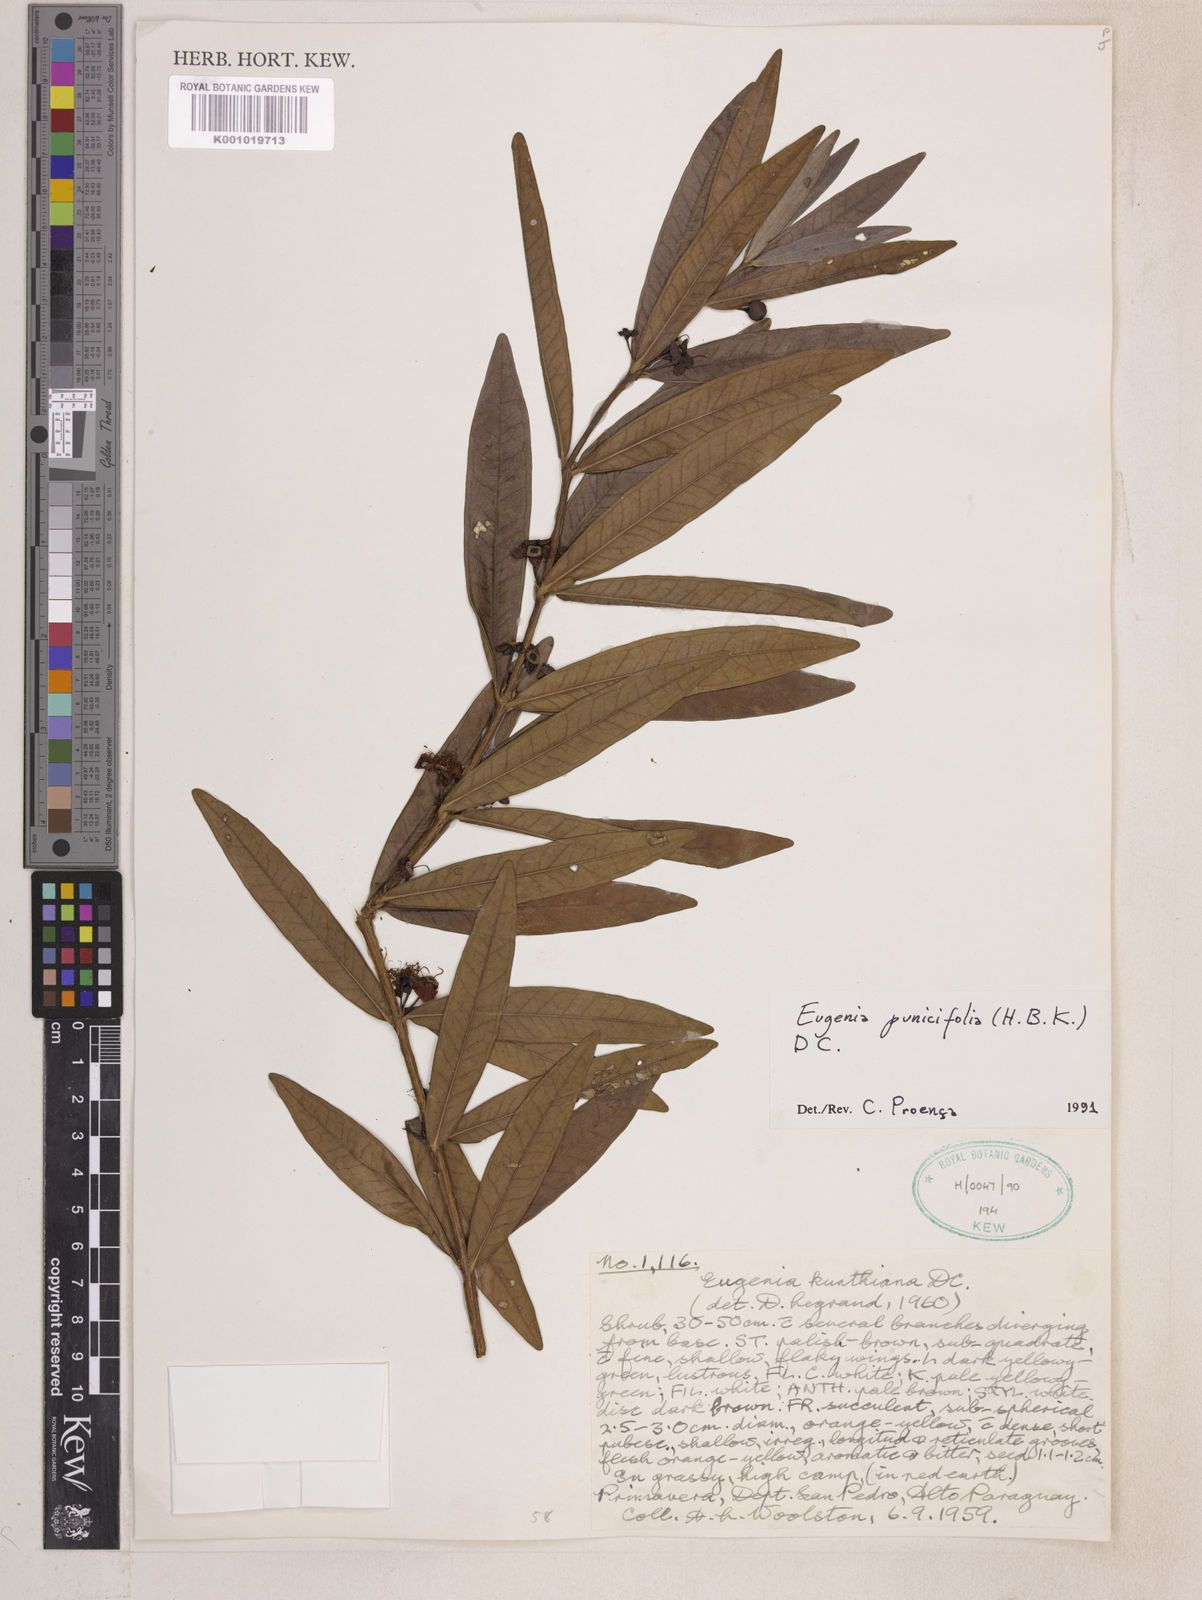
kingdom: Plantae
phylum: Tracheophyta
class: Magnoliopsida
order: Myrtales
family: Myrtaceae
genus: Eugenia
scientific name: Eugenia punicifolia
